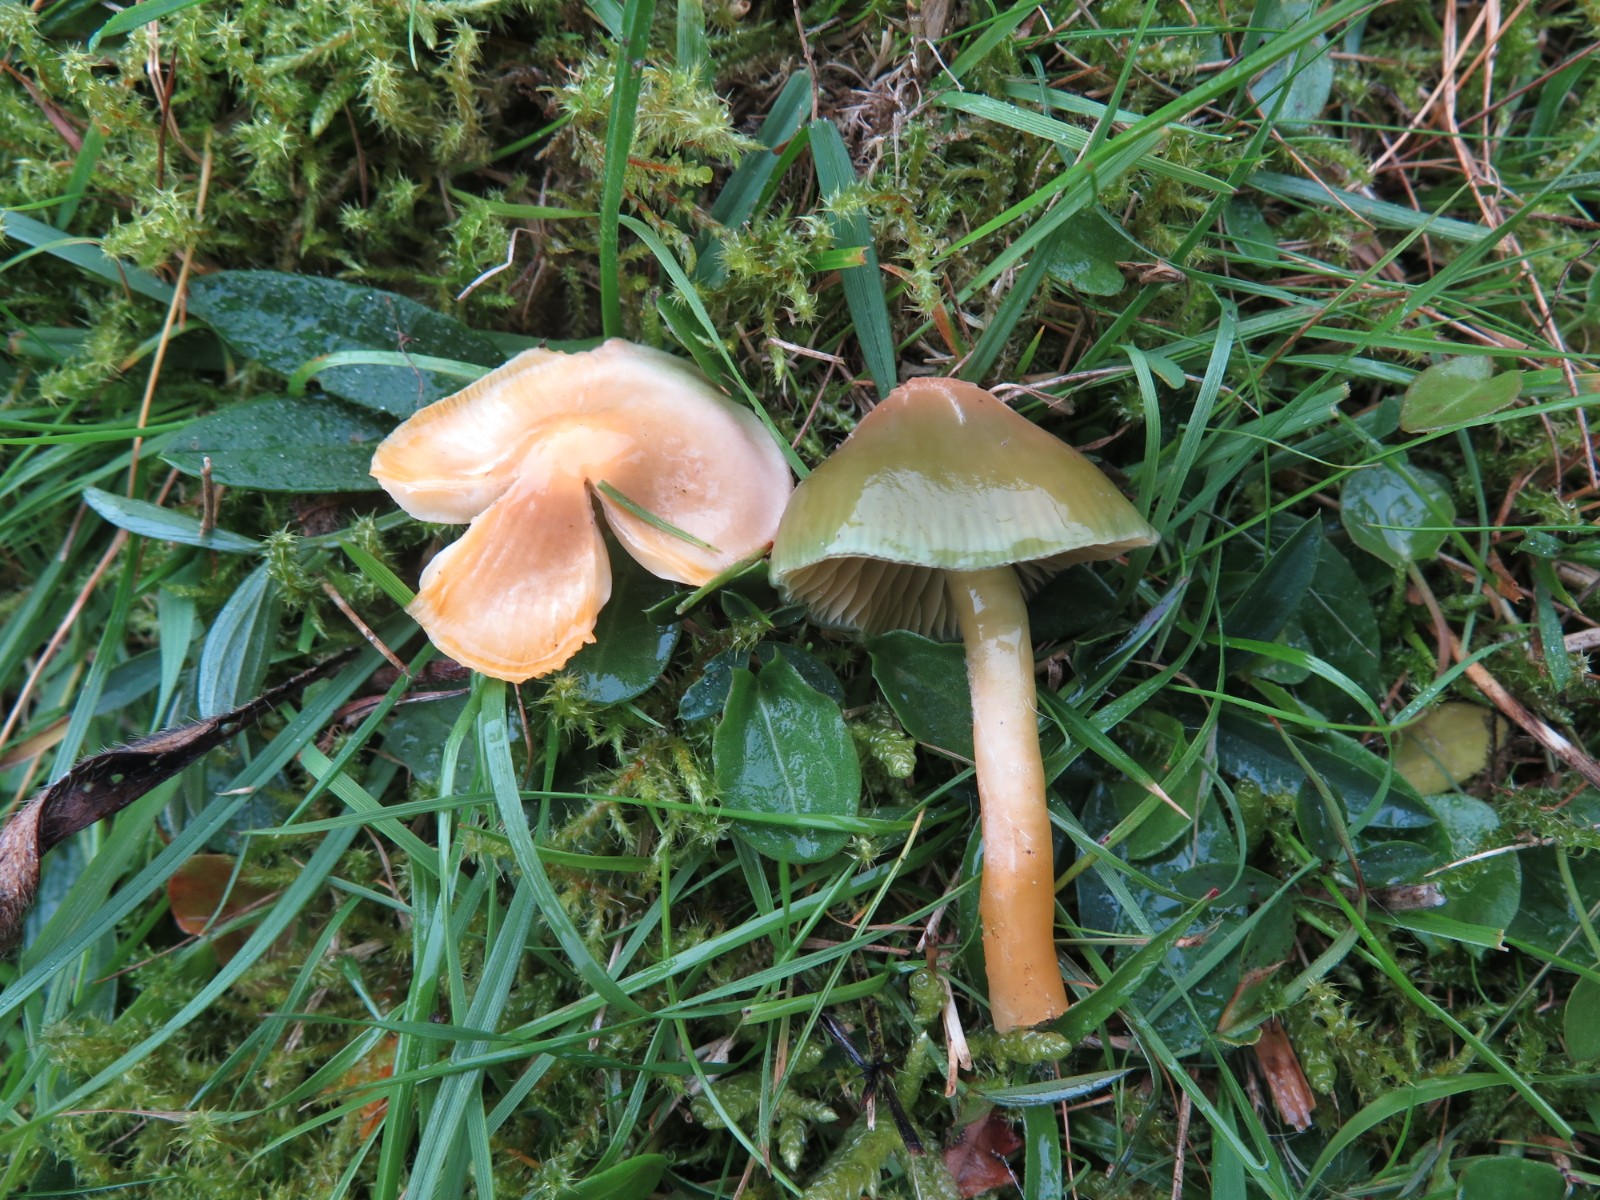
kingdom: Fungi
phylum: Basidiomycota
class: Agaricomycetes
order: Agaricales
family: Hygrophoraceae
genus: Gliophorus
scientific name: Gliophorus psittacinus
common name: papegøje-vokshat
